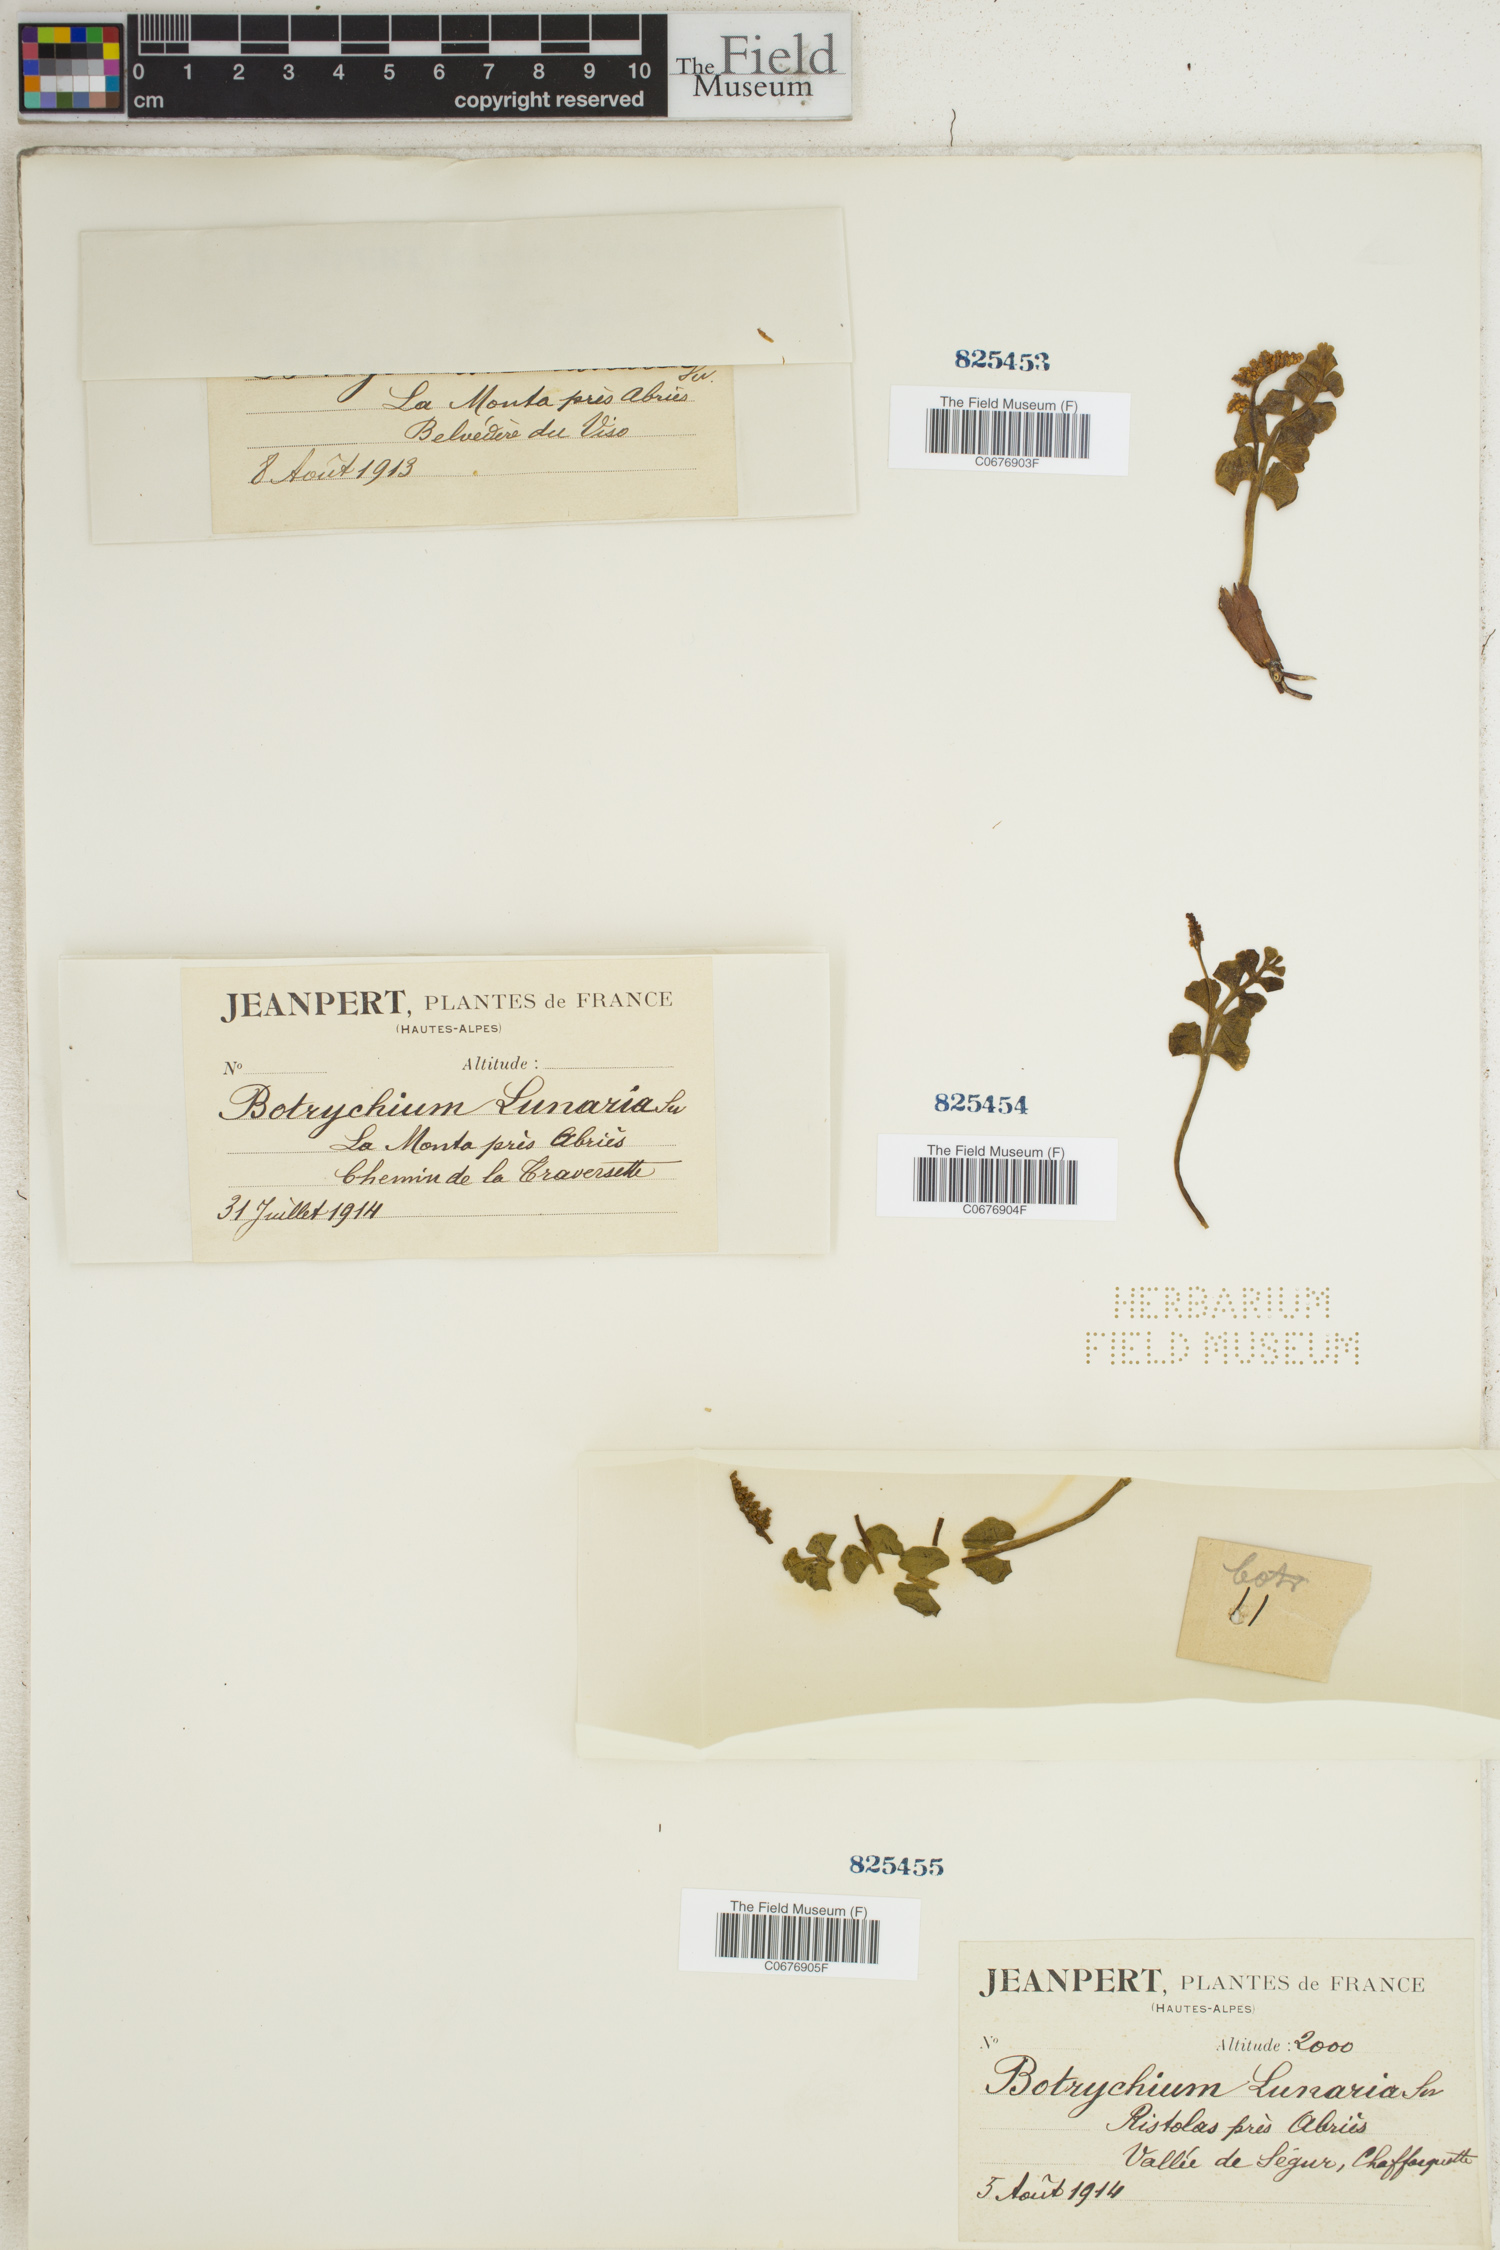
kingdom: Plantae
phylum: Tracheophyta
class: Polypodiopsida
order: Ophioglossales
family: Ophioglossaceae
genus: Botrychium
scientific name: Botrychium lunaria
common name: Moonwort
